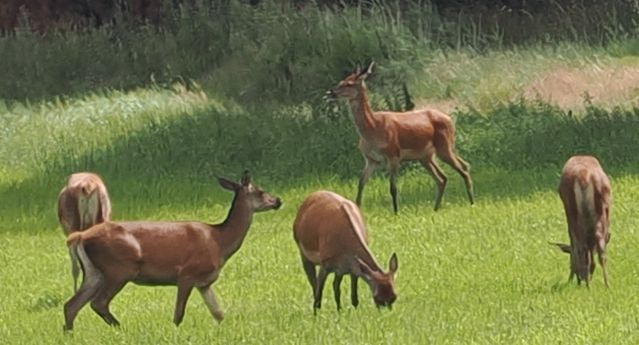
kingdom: Animalia
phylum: Chordata
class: Mammalia
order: Artiodactyla
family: Cervidae
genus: Cervus
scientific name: Cervus elaphus
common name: Krondyr
